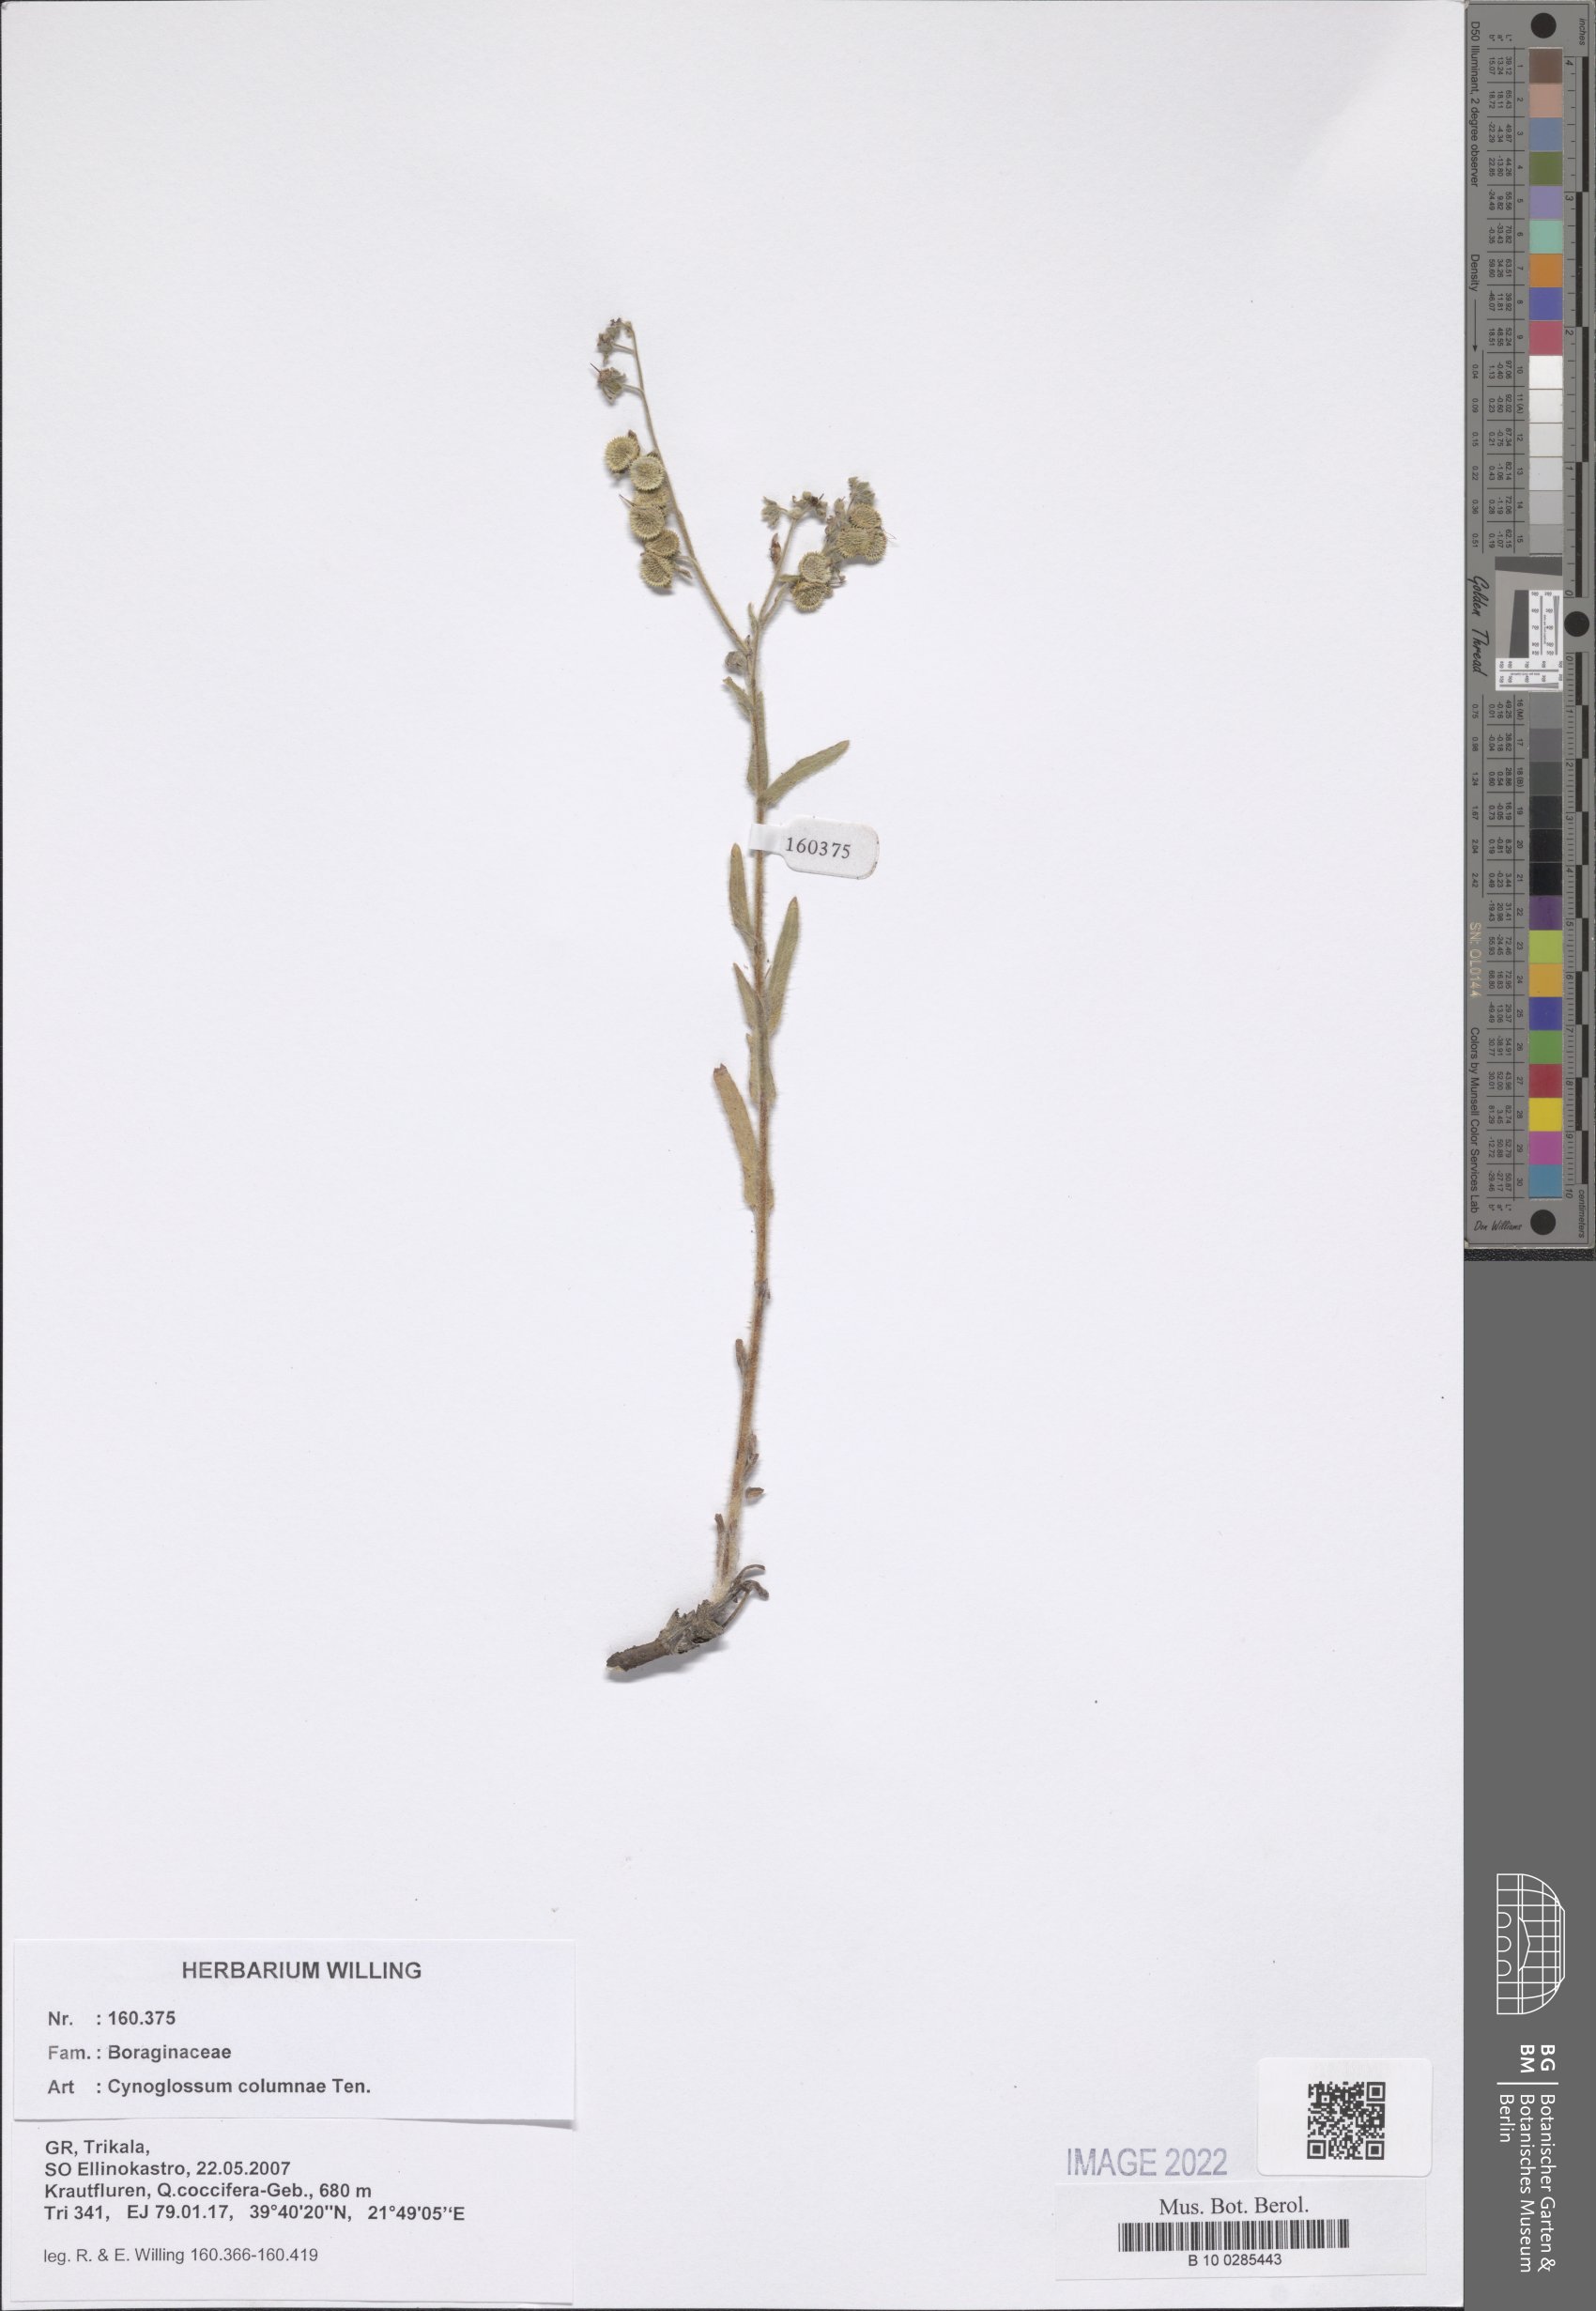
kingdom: Plantae
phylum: Tracheophyta
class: Magnoliopsida
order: Boraginales
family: Boraginaceae
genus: Rindera
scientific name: Rindera columnae
